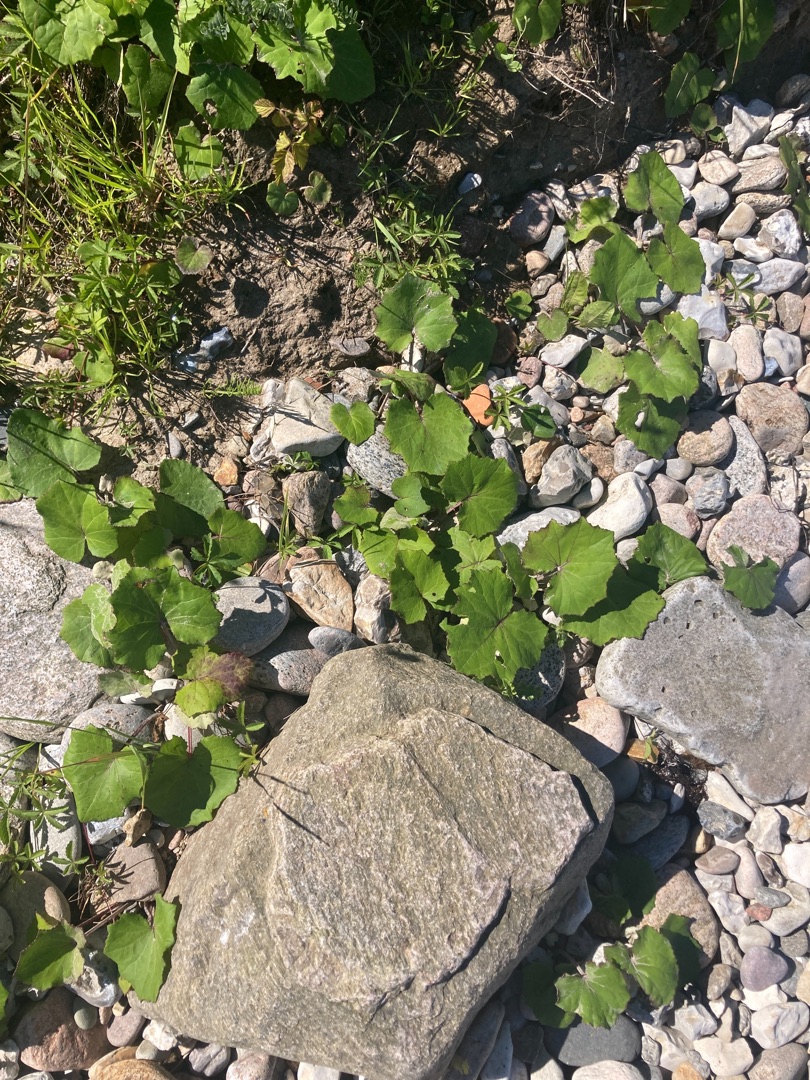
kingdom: Plantae
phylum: Tracheophyta
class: Magnoliopsida
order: Asterales
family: Asteraceae
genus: Tussilago
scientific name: Tussilago farfara
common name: Følfod
